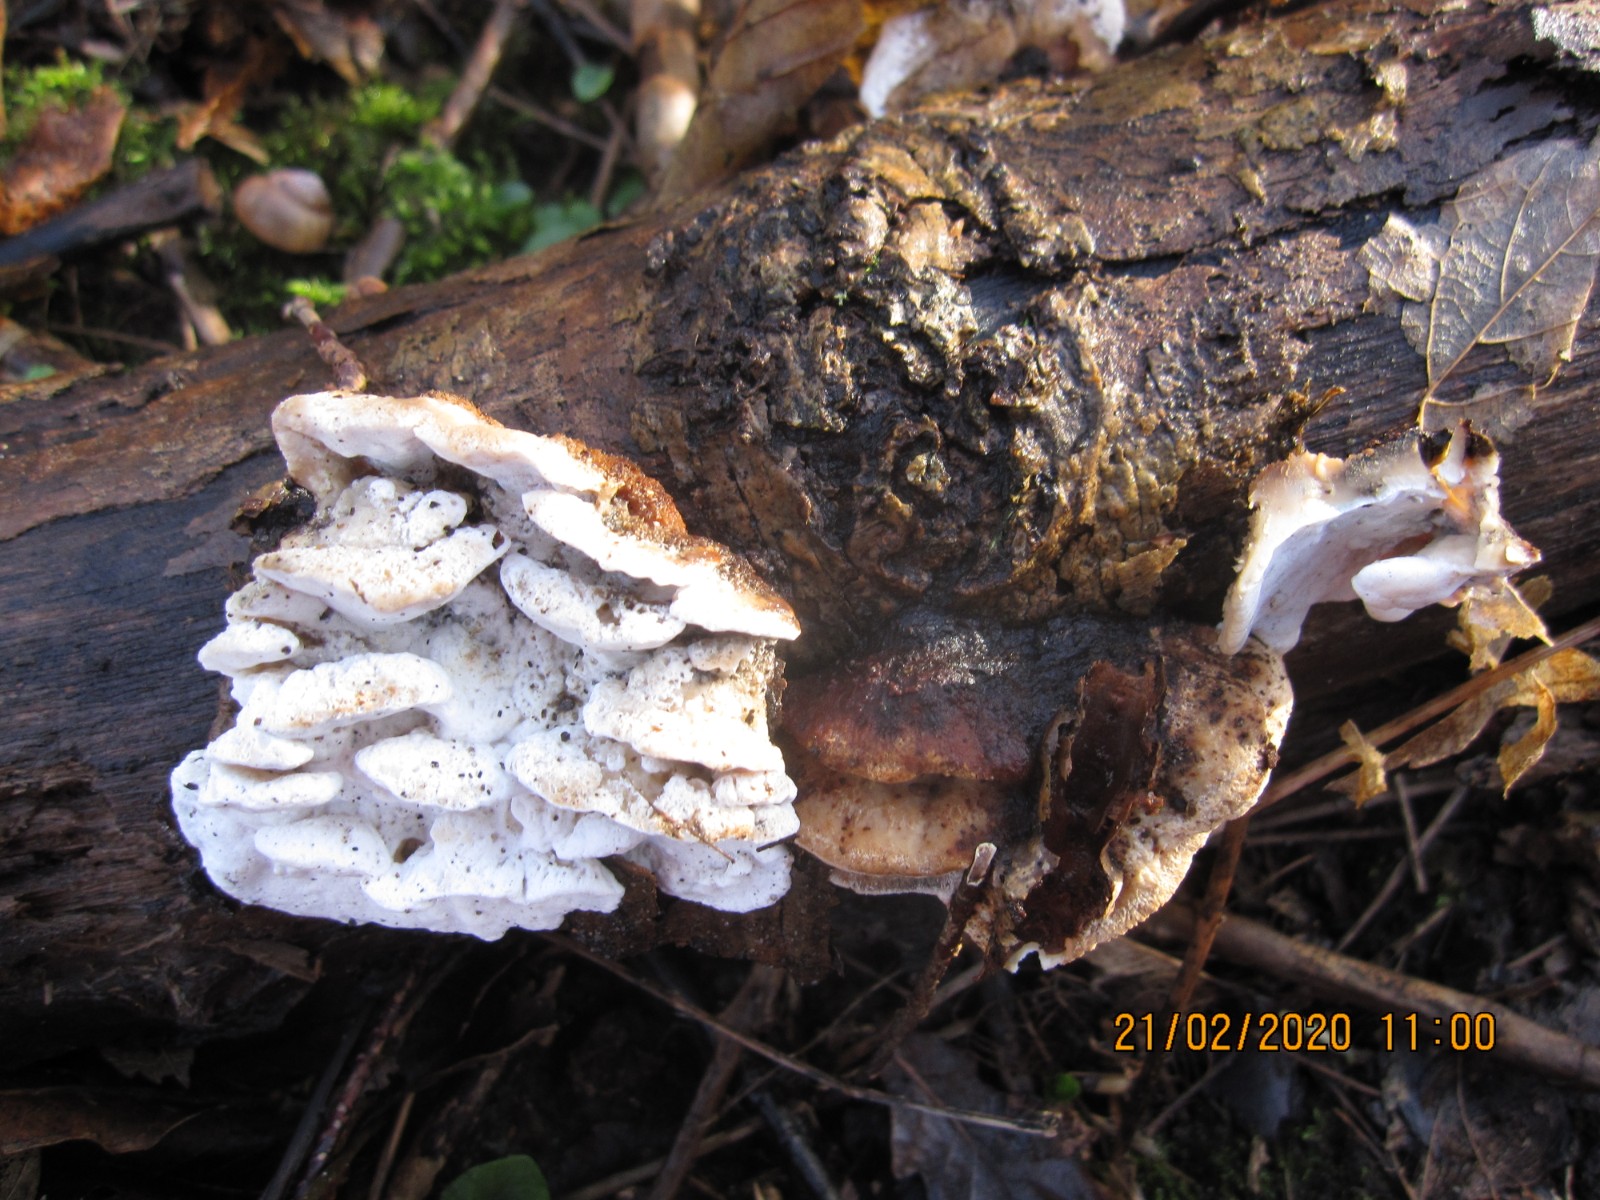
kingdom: Fungi
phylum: Basidiomycota
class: Agaricomycetes
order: Polyporales
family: Incrustoporiaceae
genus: Skeletocutis
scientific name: Skeletocutis nemoralis
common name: stor krystalporesvamp
